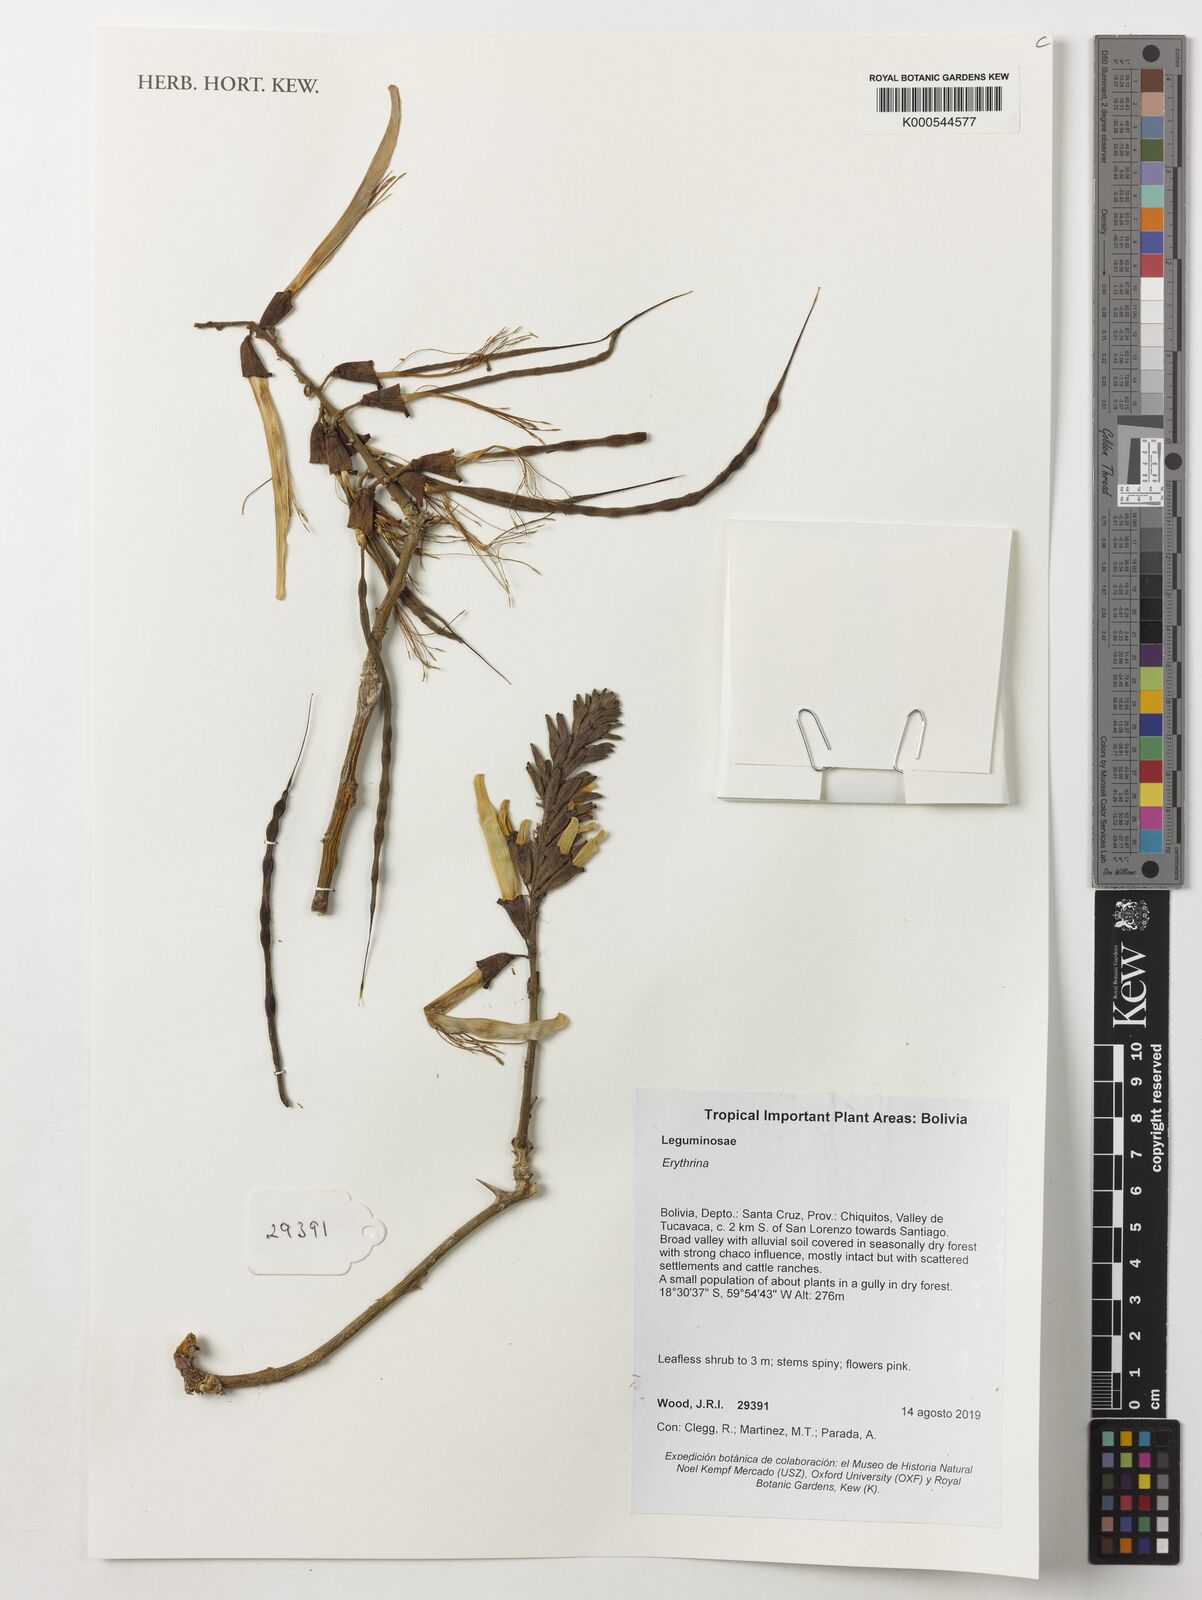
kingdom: Plantae
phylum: Tracheophyta
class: Magnoliopsida
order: Fabales
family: Fabaceae
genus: Erythrina
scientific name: Erythrina
